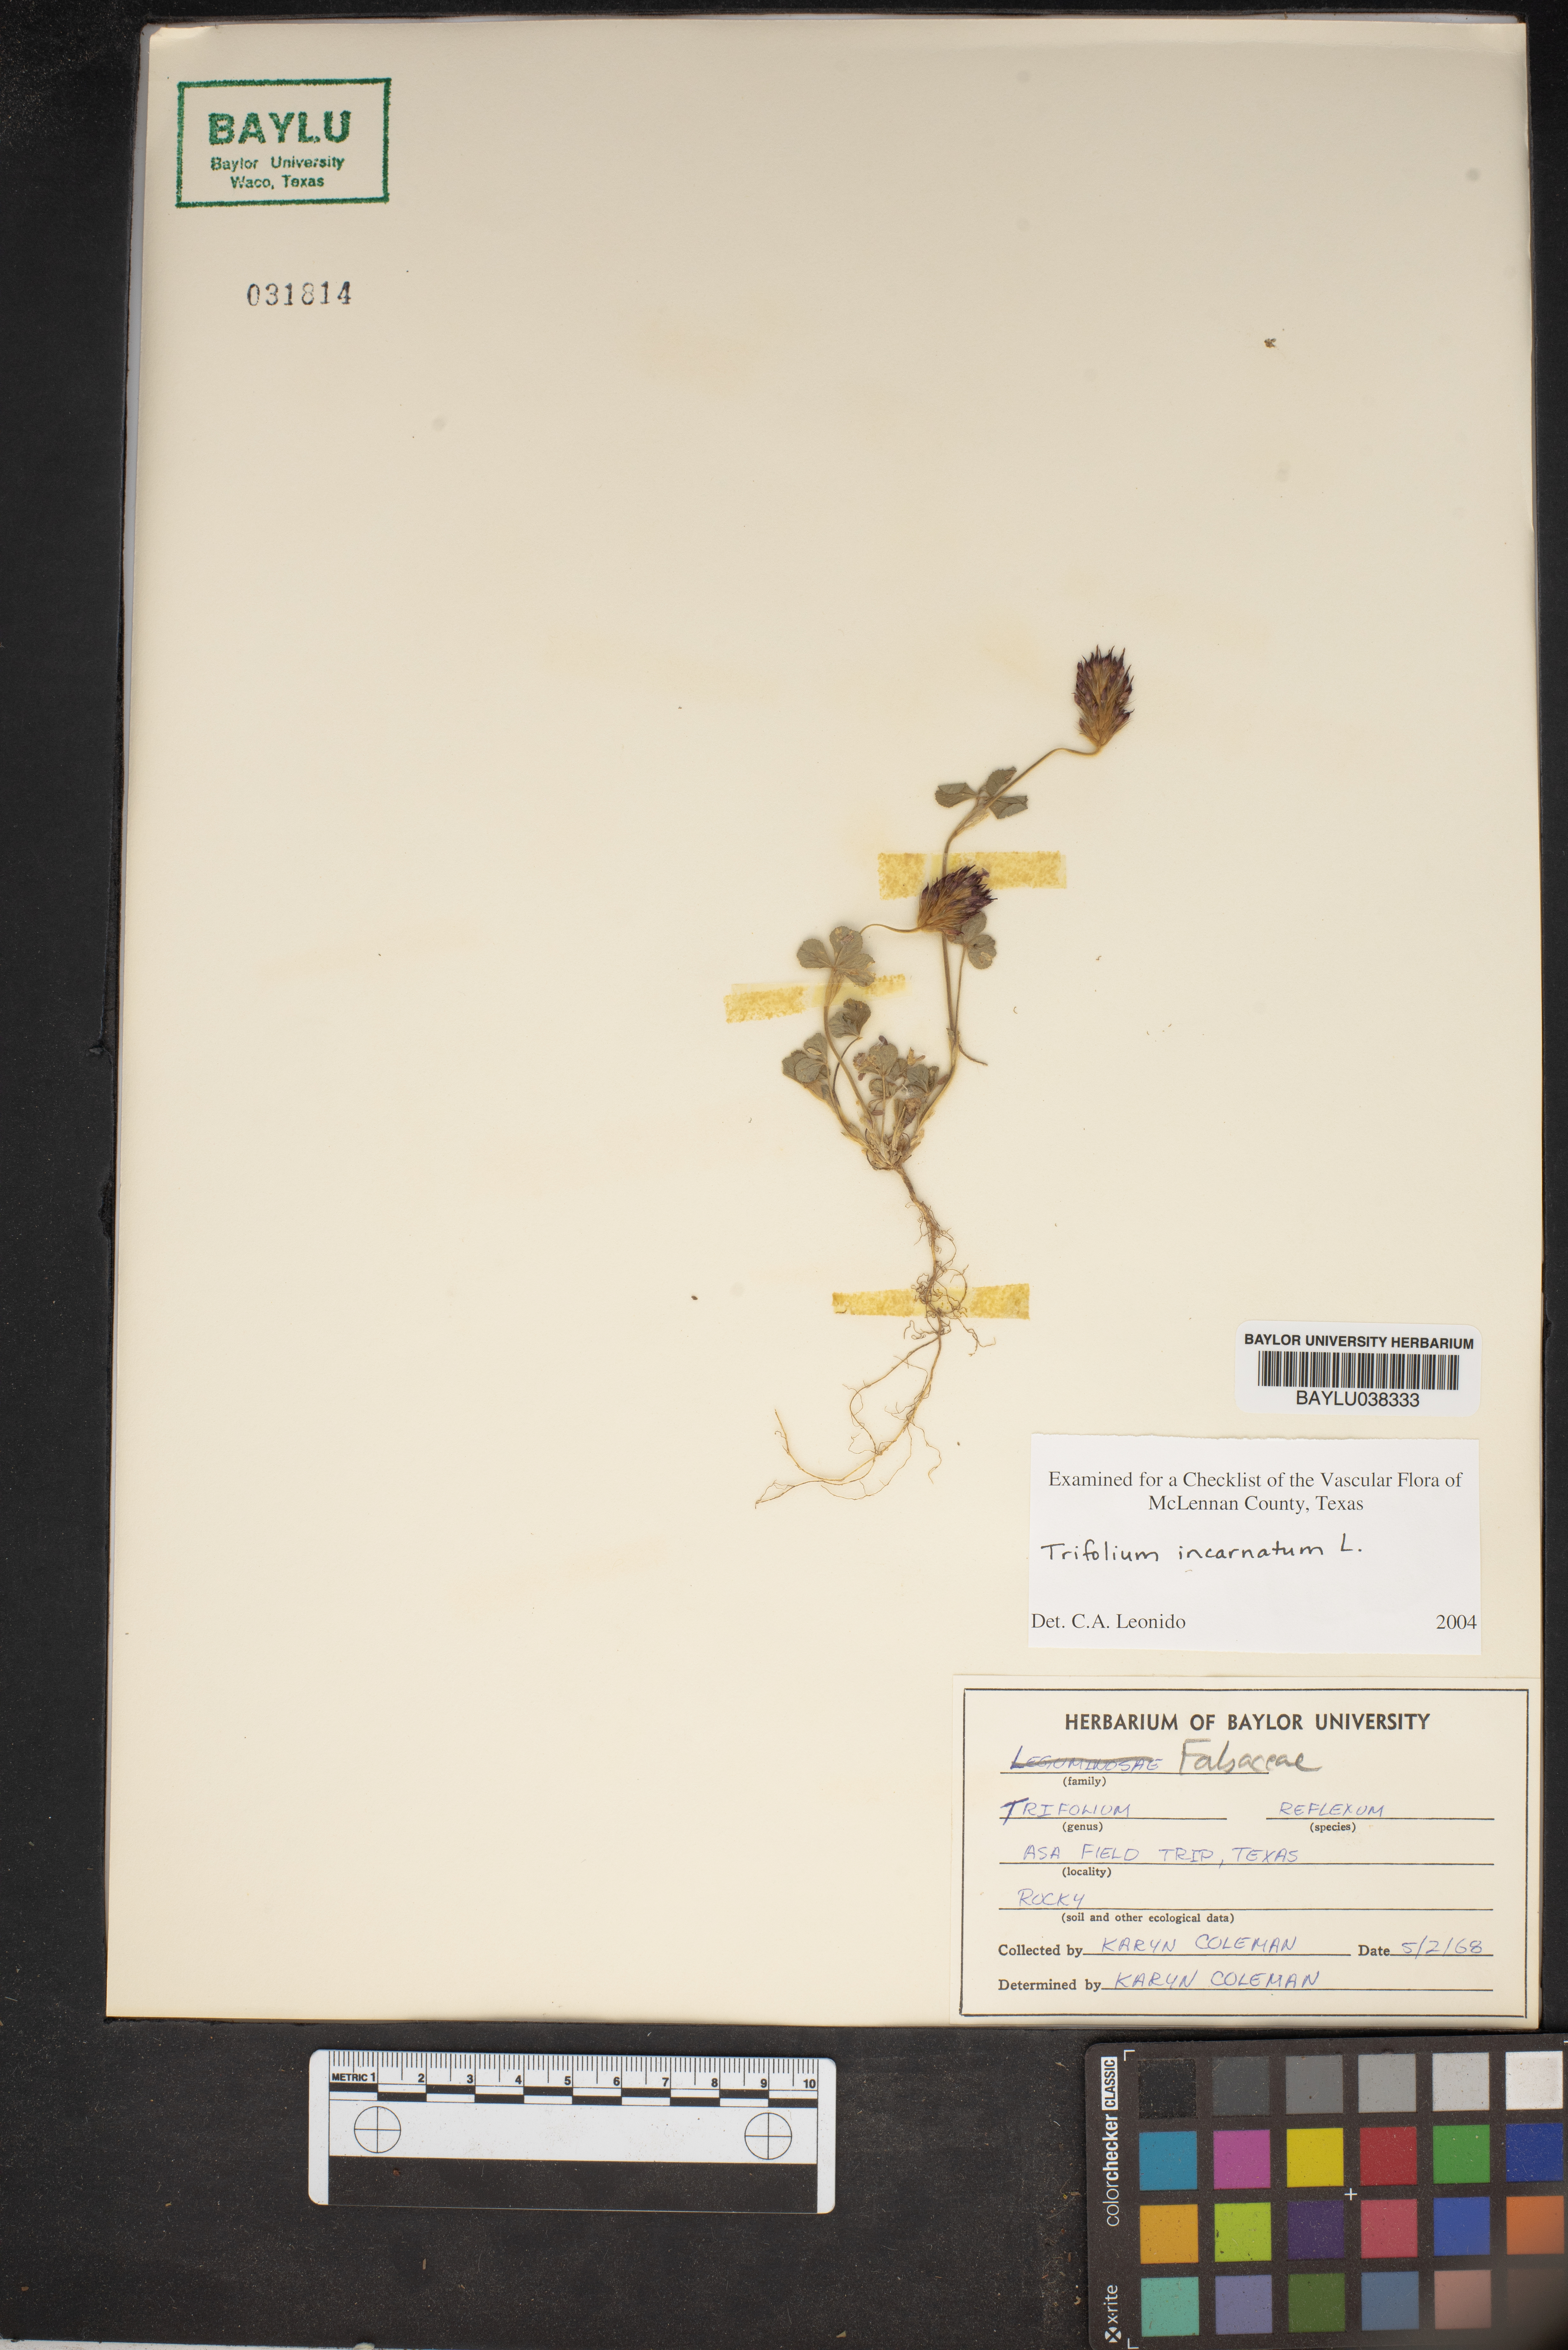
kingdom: Plantae
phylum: Tracheophyta
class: Magnoliopsida
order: Fabales
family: Fabaceae
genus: Trifolium
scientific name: Trifolium incarnatum
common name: Crimson clover
